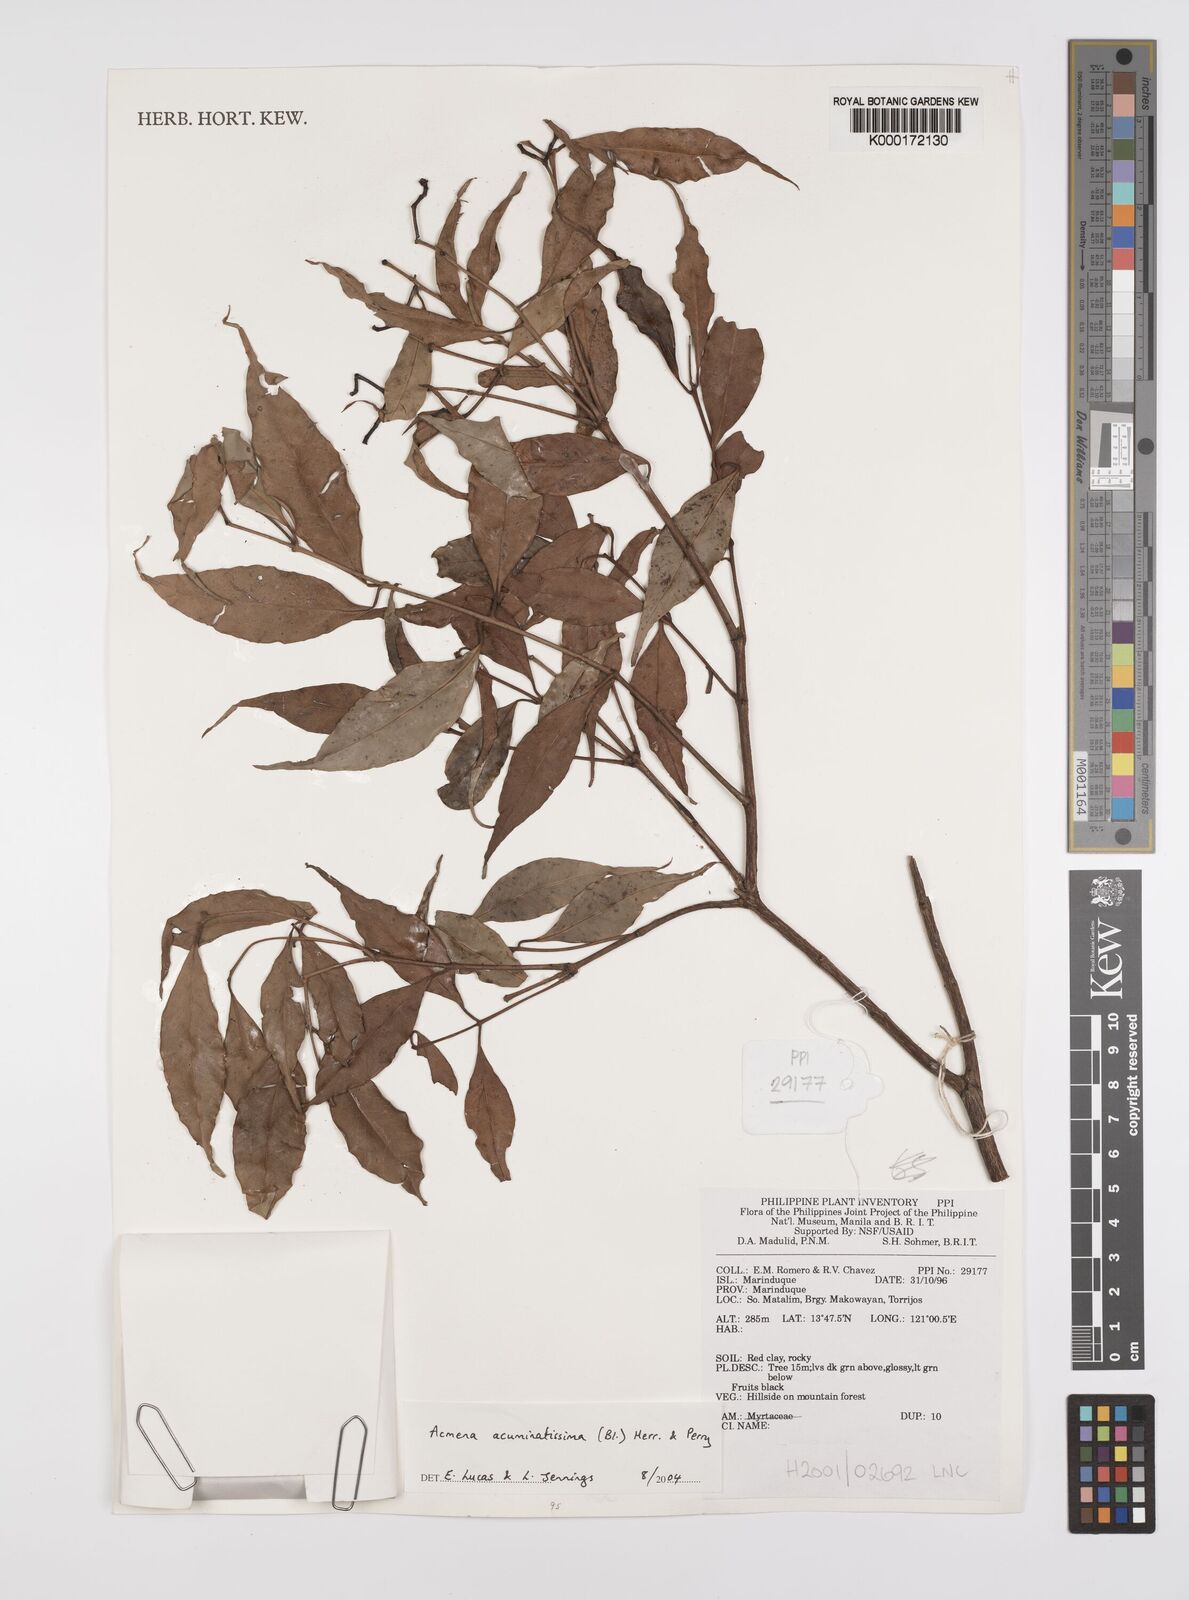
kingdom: Plantae
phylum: Tracheophyta
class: Magnoliopsida
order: Myrtales
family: Myrtaceae
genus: Syzygium
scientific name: Syzygium acuminatissimum
